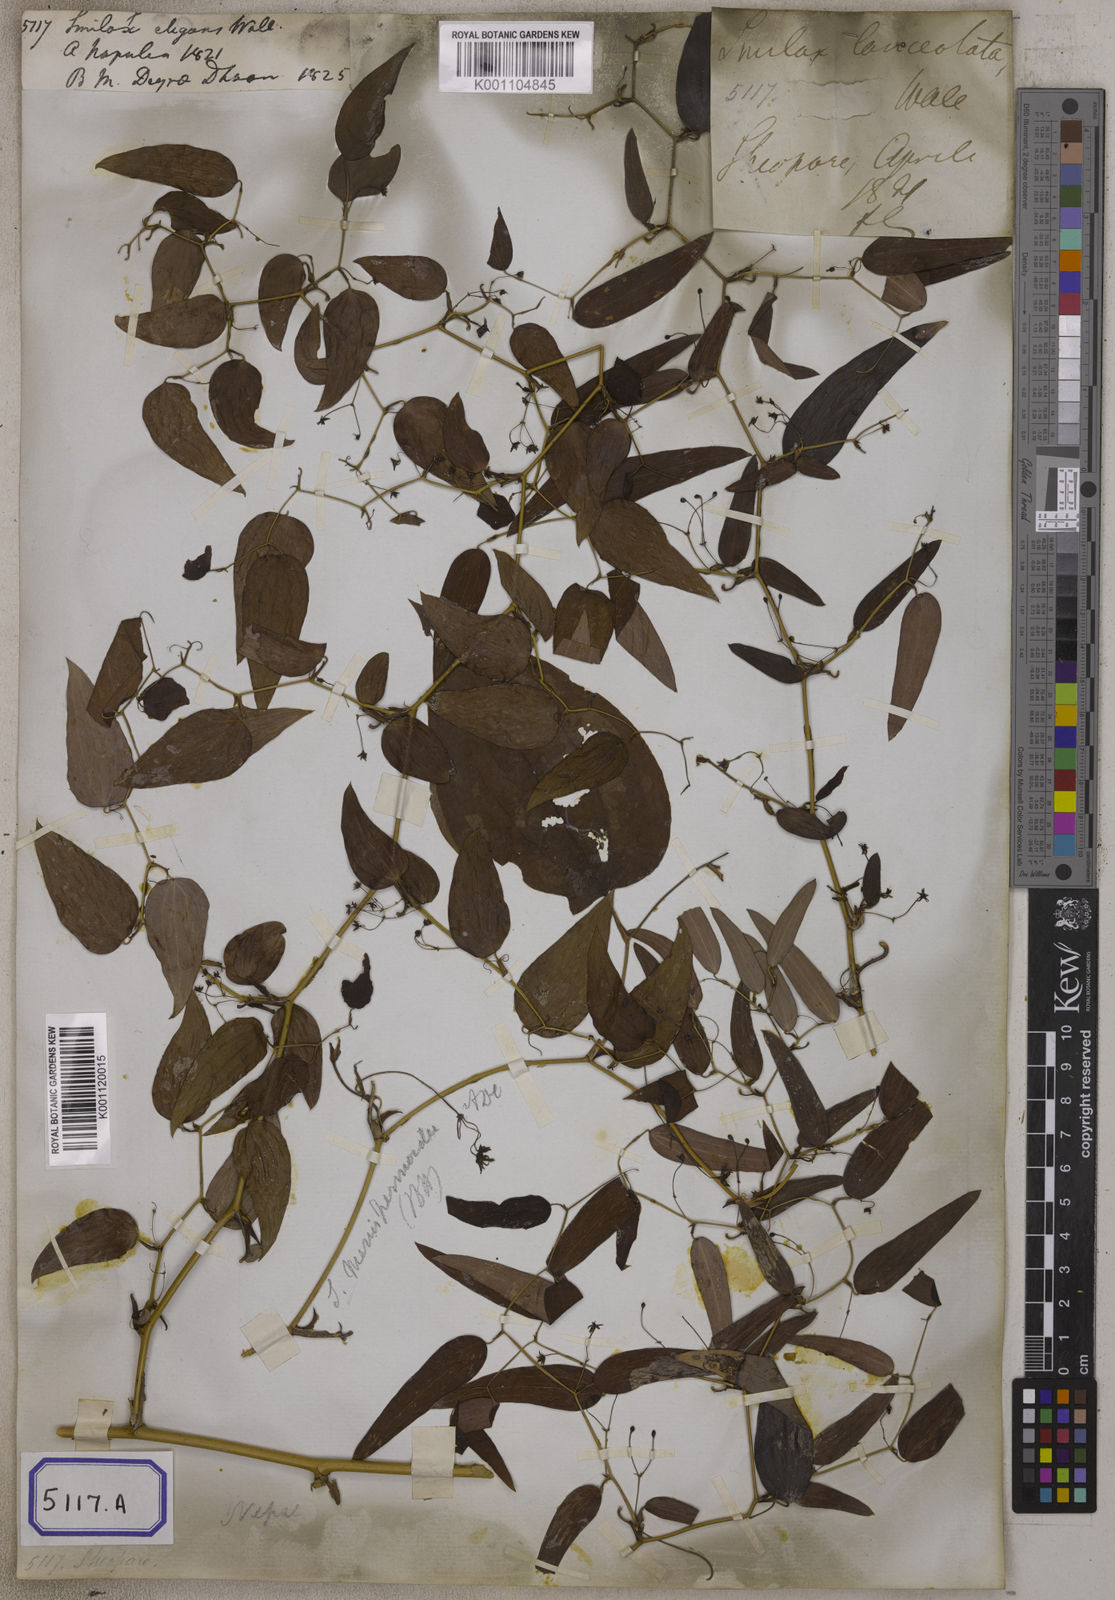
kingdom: Plantae
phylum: Tracheophyta
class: Liliopsida
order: Liliales
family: Smilacaceae
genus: Smilax
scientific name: Smilax
